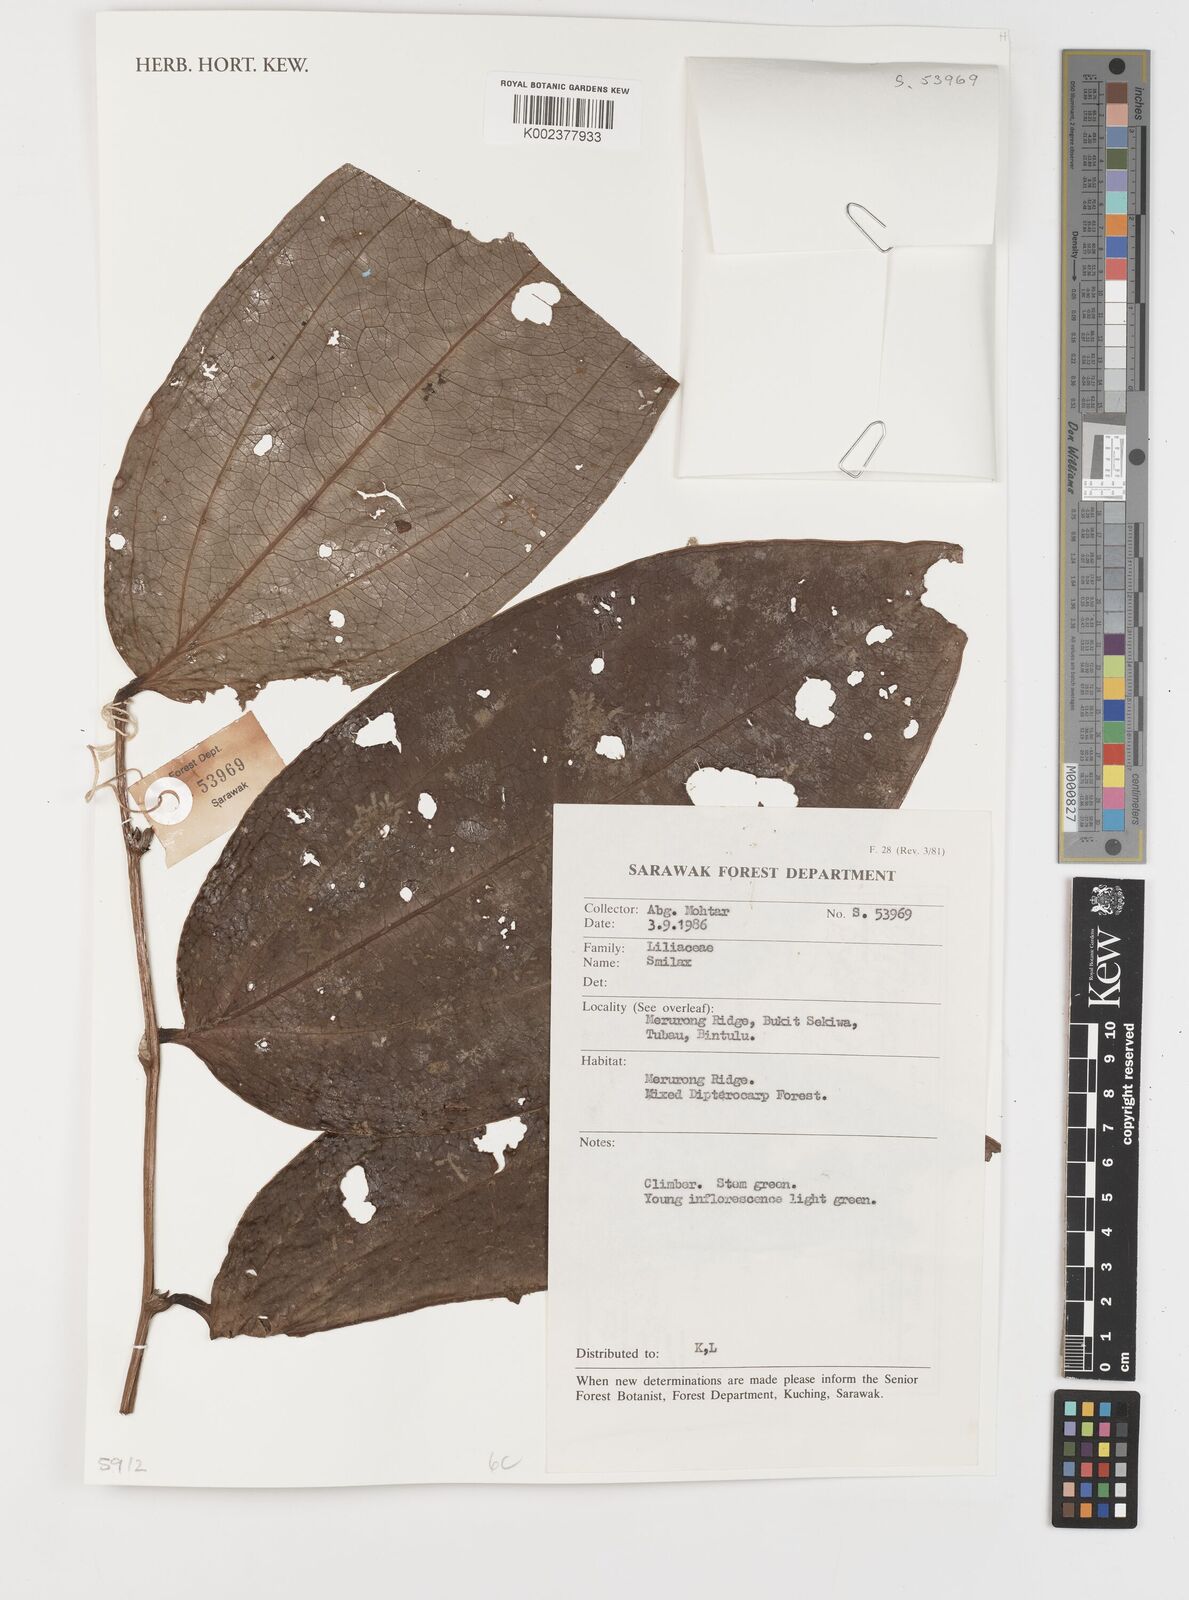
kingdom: Plantae
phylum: Tracheophyta
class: Liliopsida
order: Liliales
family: Smilacaceae
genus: Smilax
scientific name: Smilax
